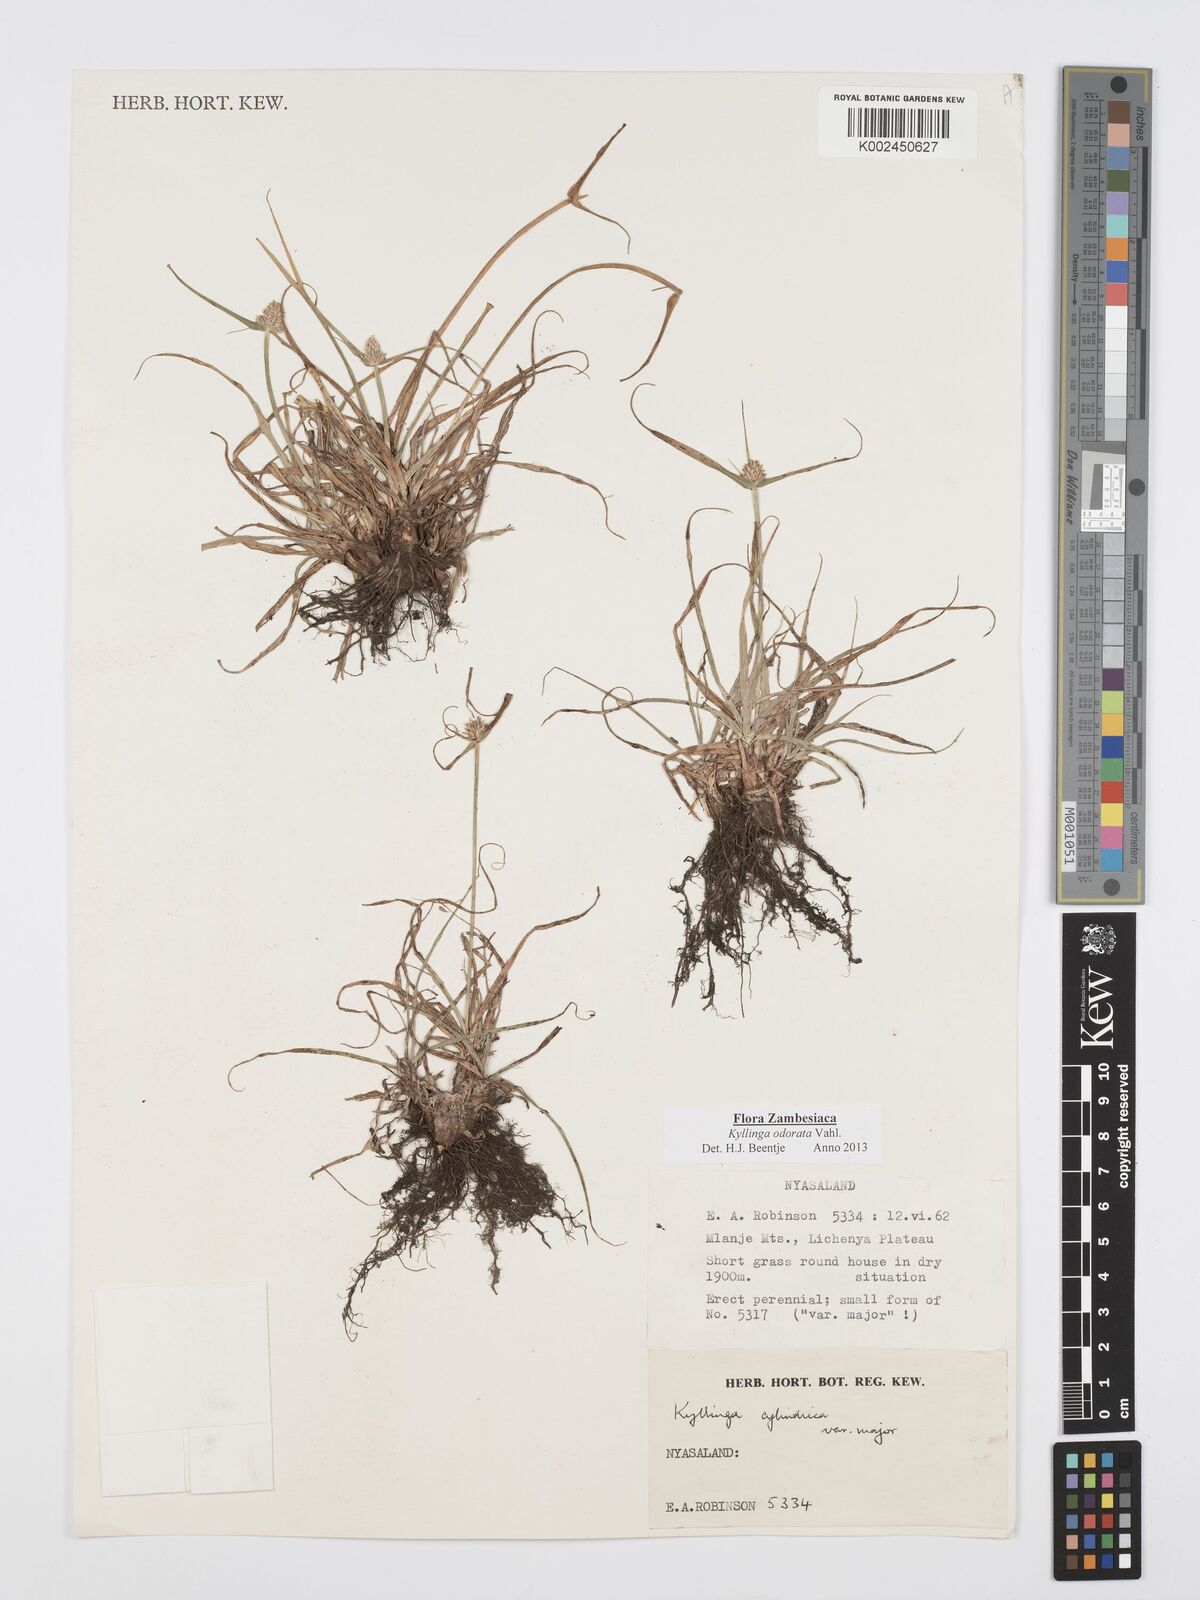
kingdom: Plantae
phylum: Tracheophyta
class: Liliopsida
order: Poales
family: Cyperaceae
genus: Cyperus
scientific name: Cyperus
